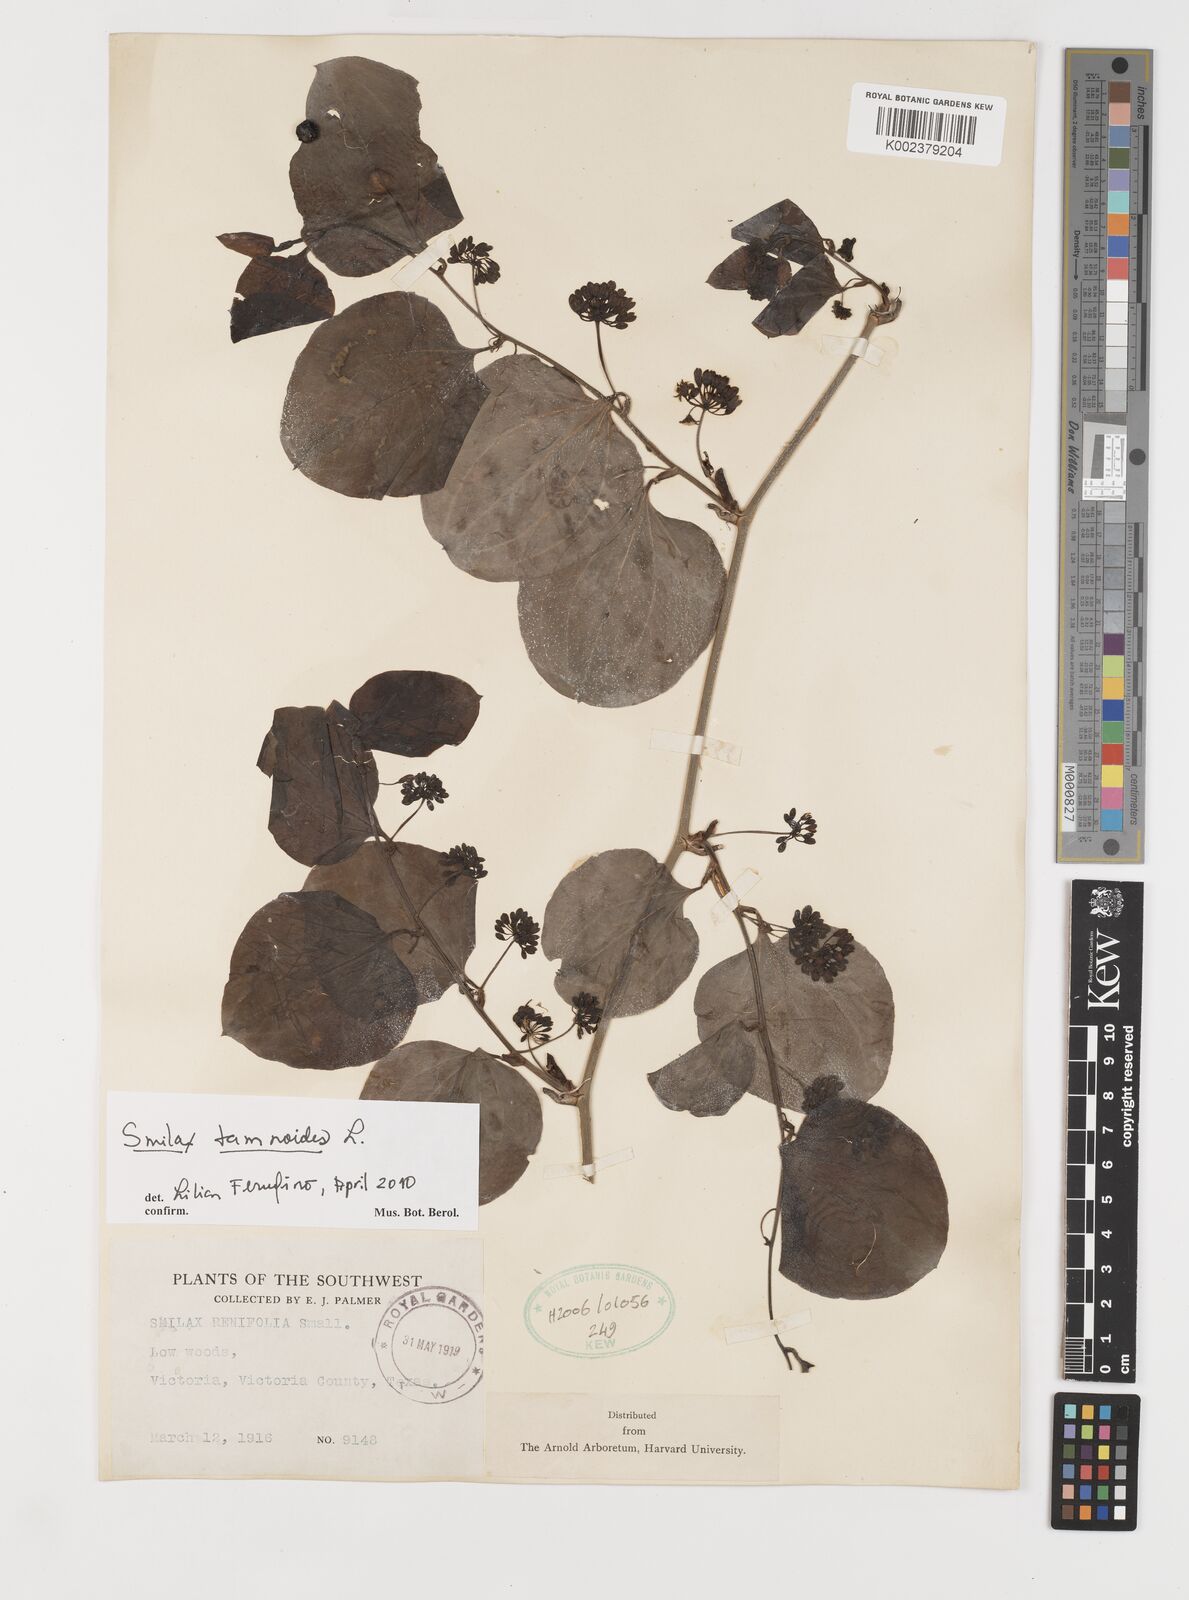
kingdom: Plantae
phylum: Tracheophyta
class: Liliopsida
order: Liliales
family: Smilacaceae
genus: Smilax
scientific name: Smilax pseudochina
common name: False chinaroot
